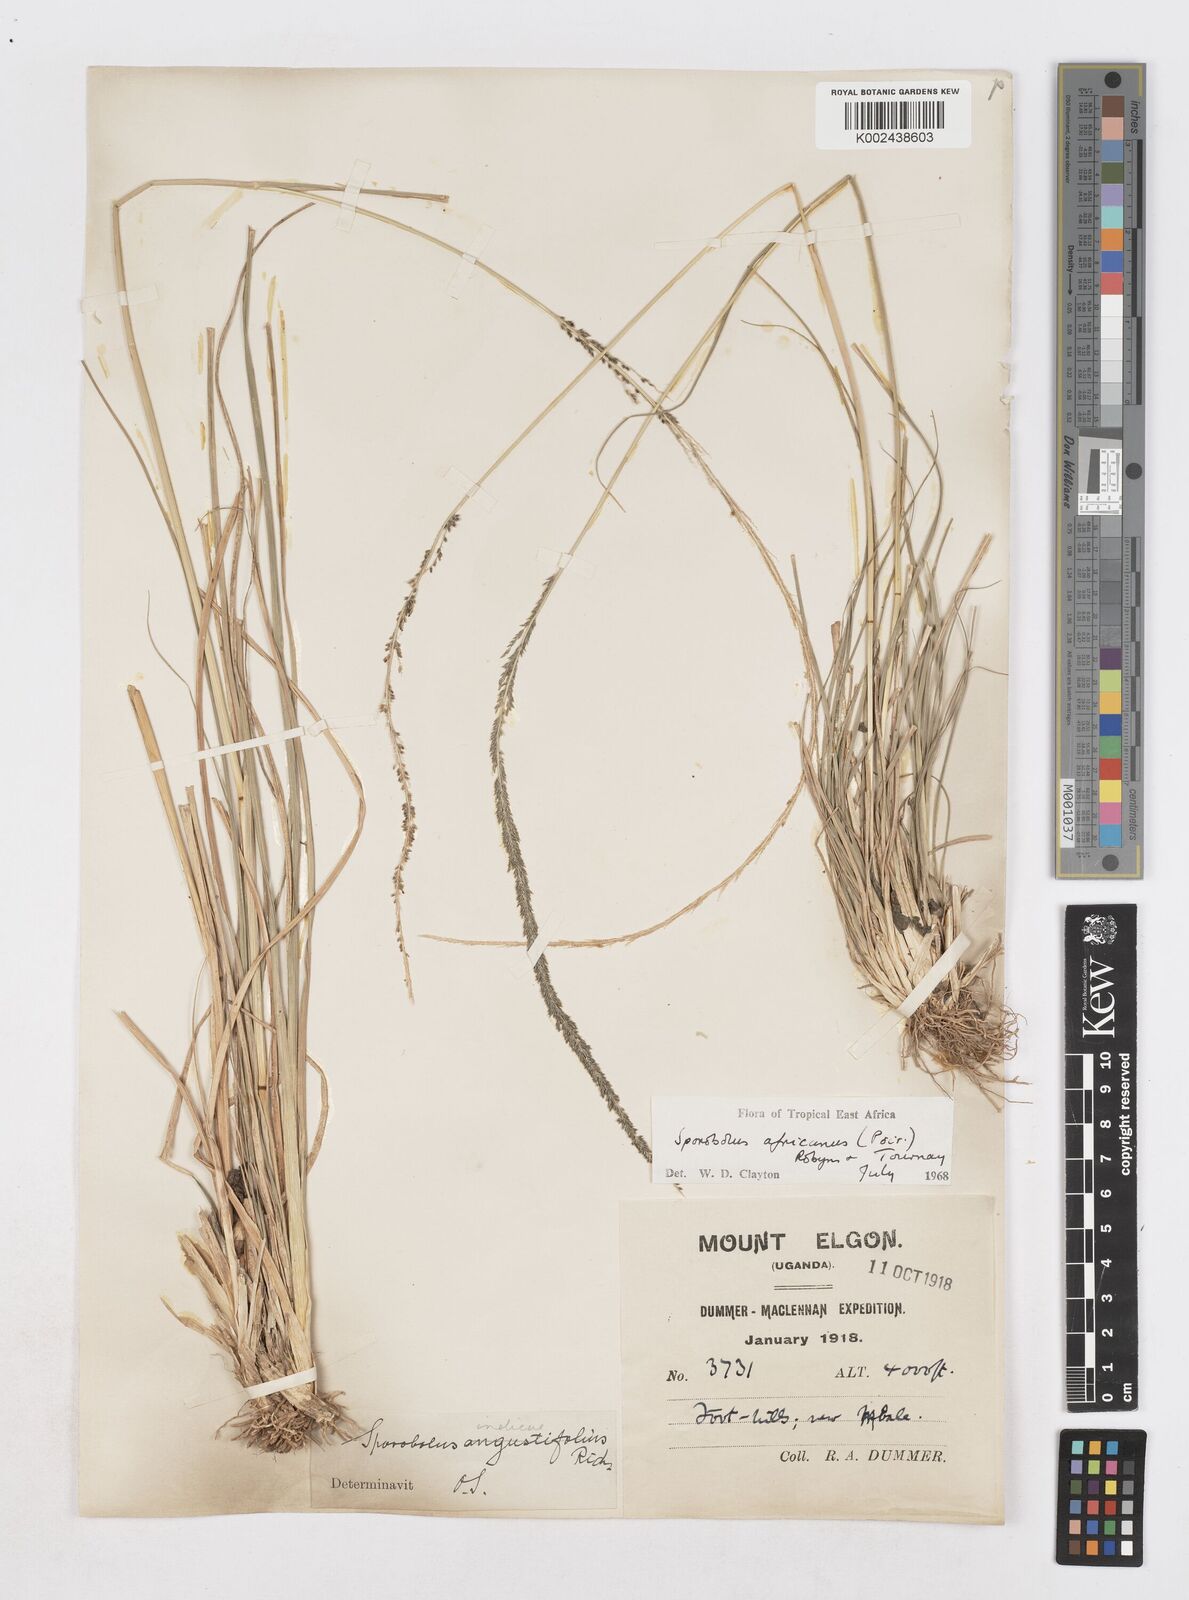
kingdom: Plantae
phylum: Tracheophyta
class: Liliopsida
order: Poales
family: Poaceae
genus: Sporobolus
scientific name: Sporobolus africanus
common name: African dropseed
